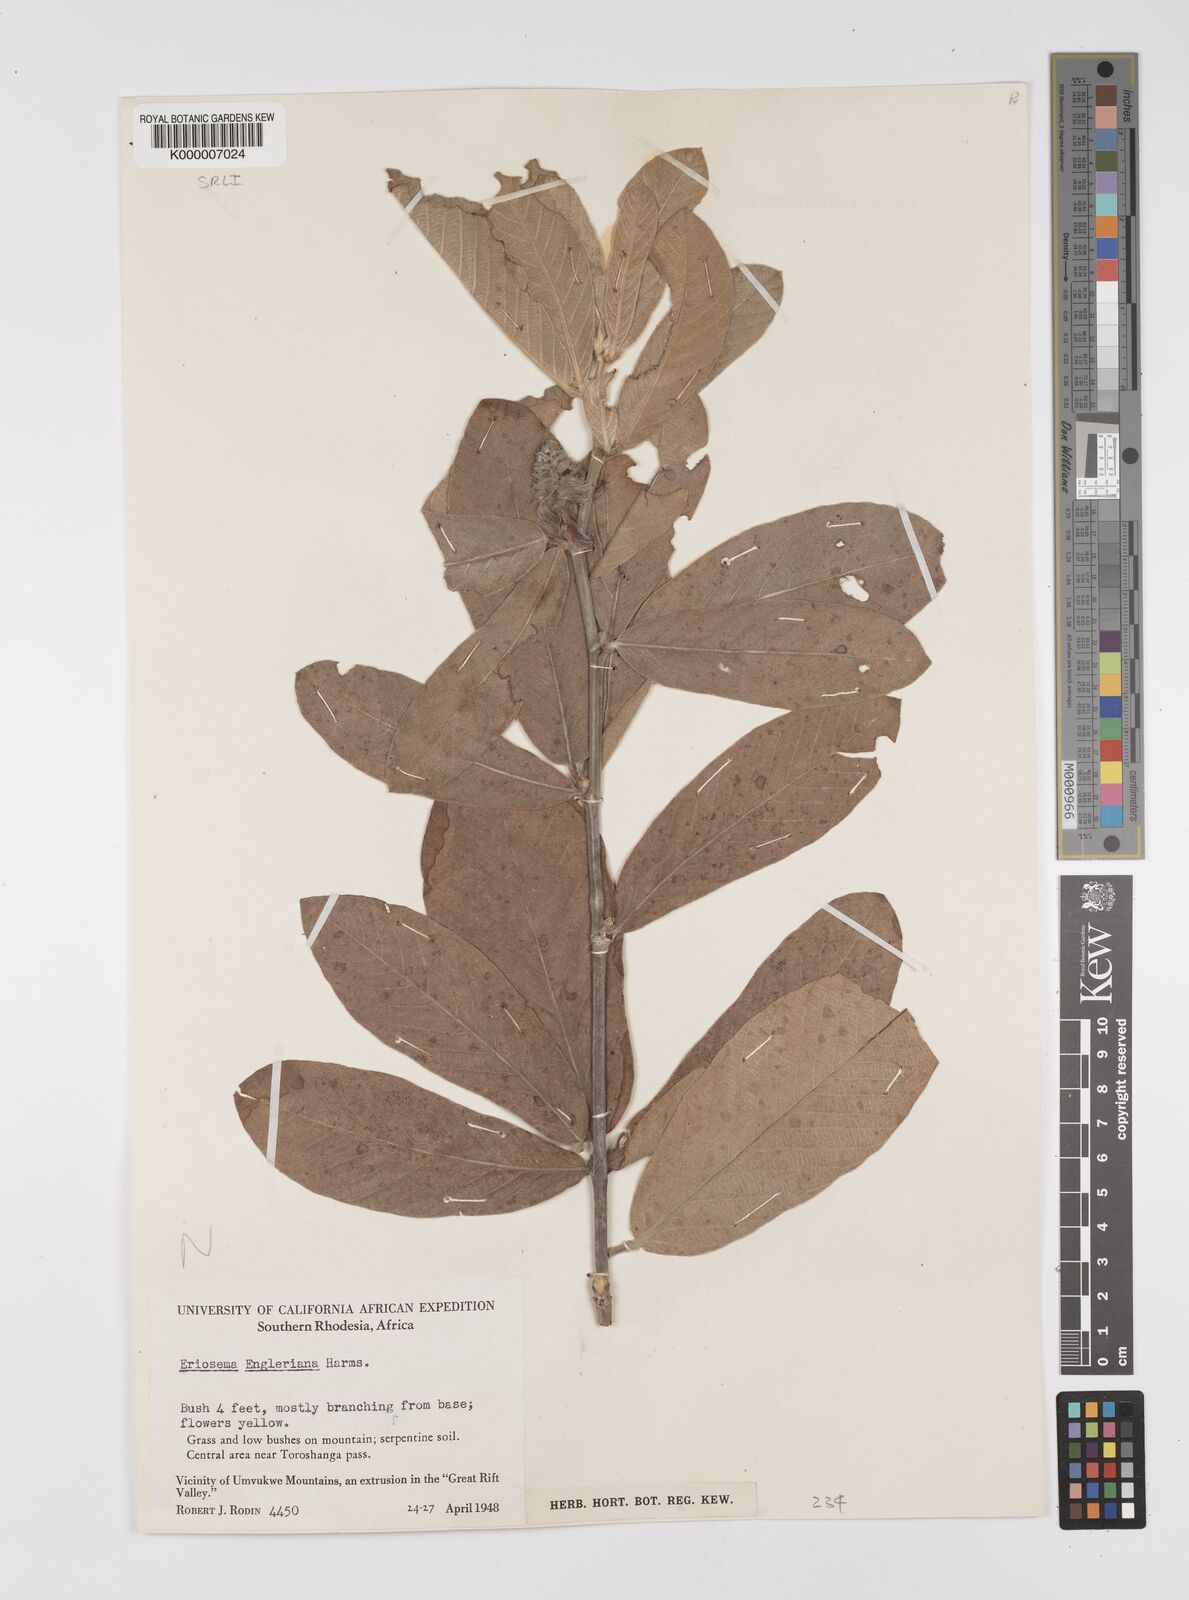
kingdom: Plantae
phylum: Tracheophyta
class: Magnoliopsida
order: Fabales
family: Fabaceae
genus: Eriosema
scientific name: Eriosema englerianum
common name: Blue bush
